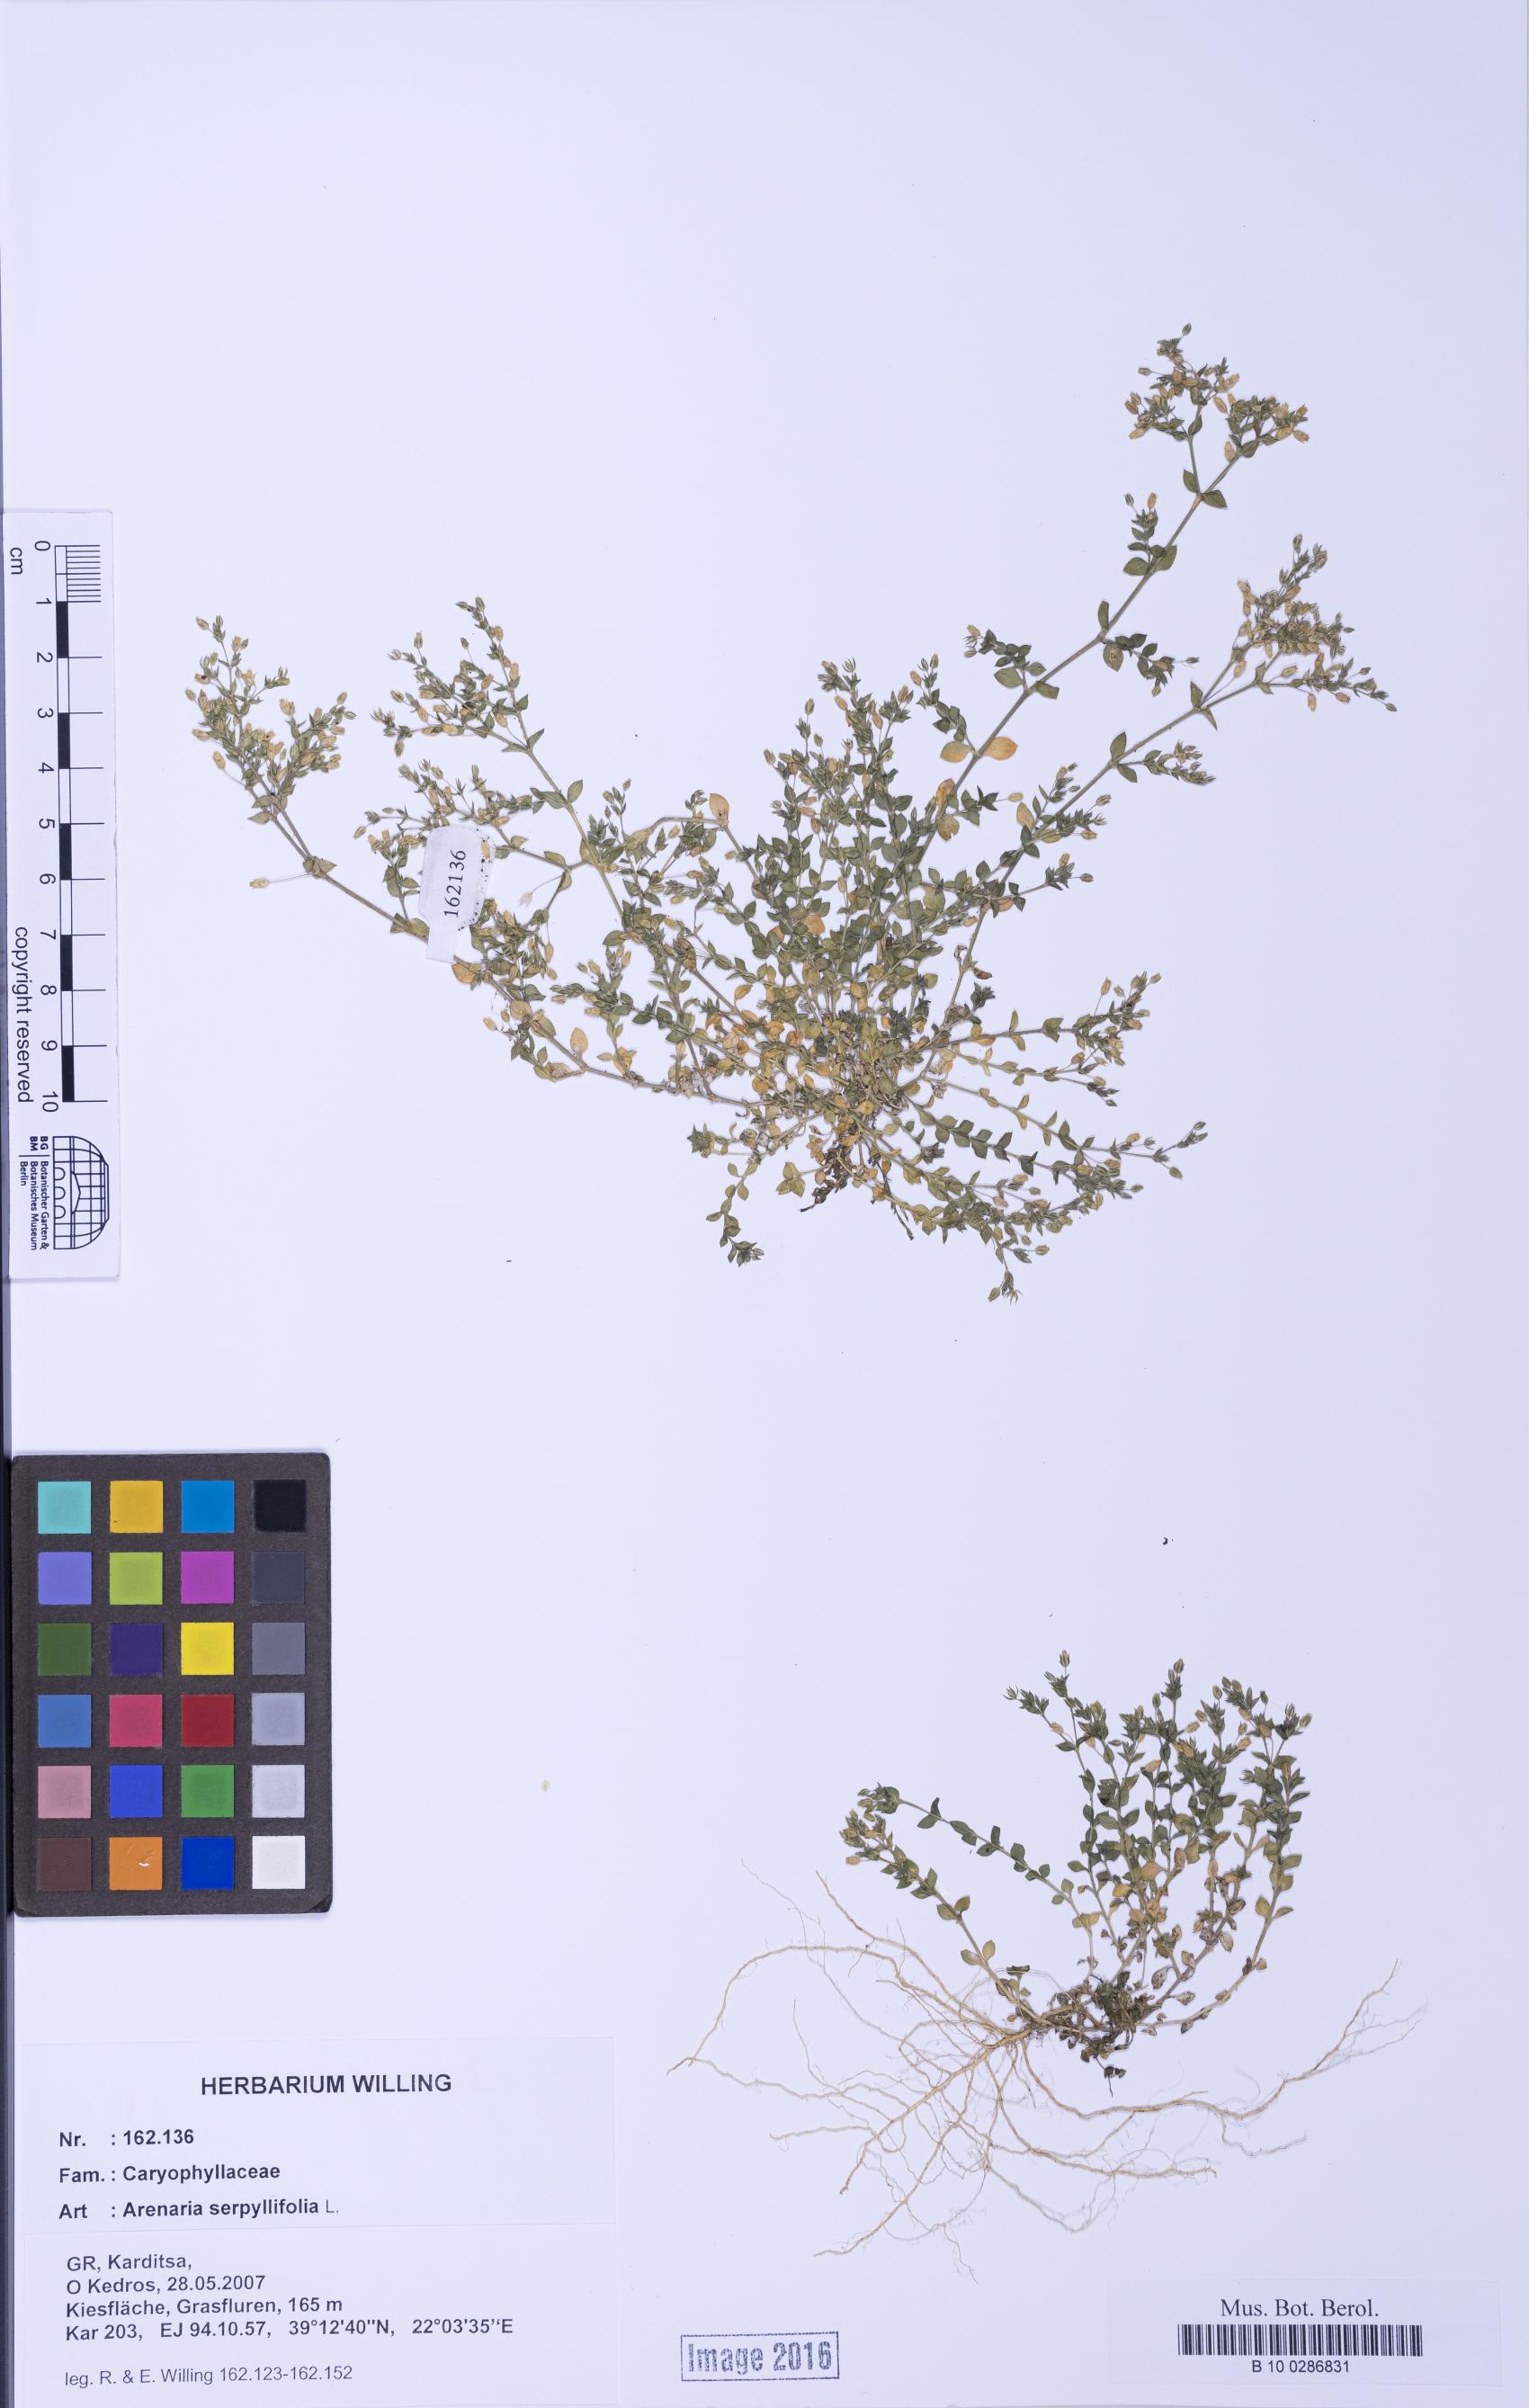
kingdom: Plantae
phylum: Tracheophyta
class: Magnoliopsida
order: Caryophyllales
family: Caryophyllaceae
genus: Arenaria
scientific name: Arenaria serpyllifolia
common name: Thyme-leaved sandwort
